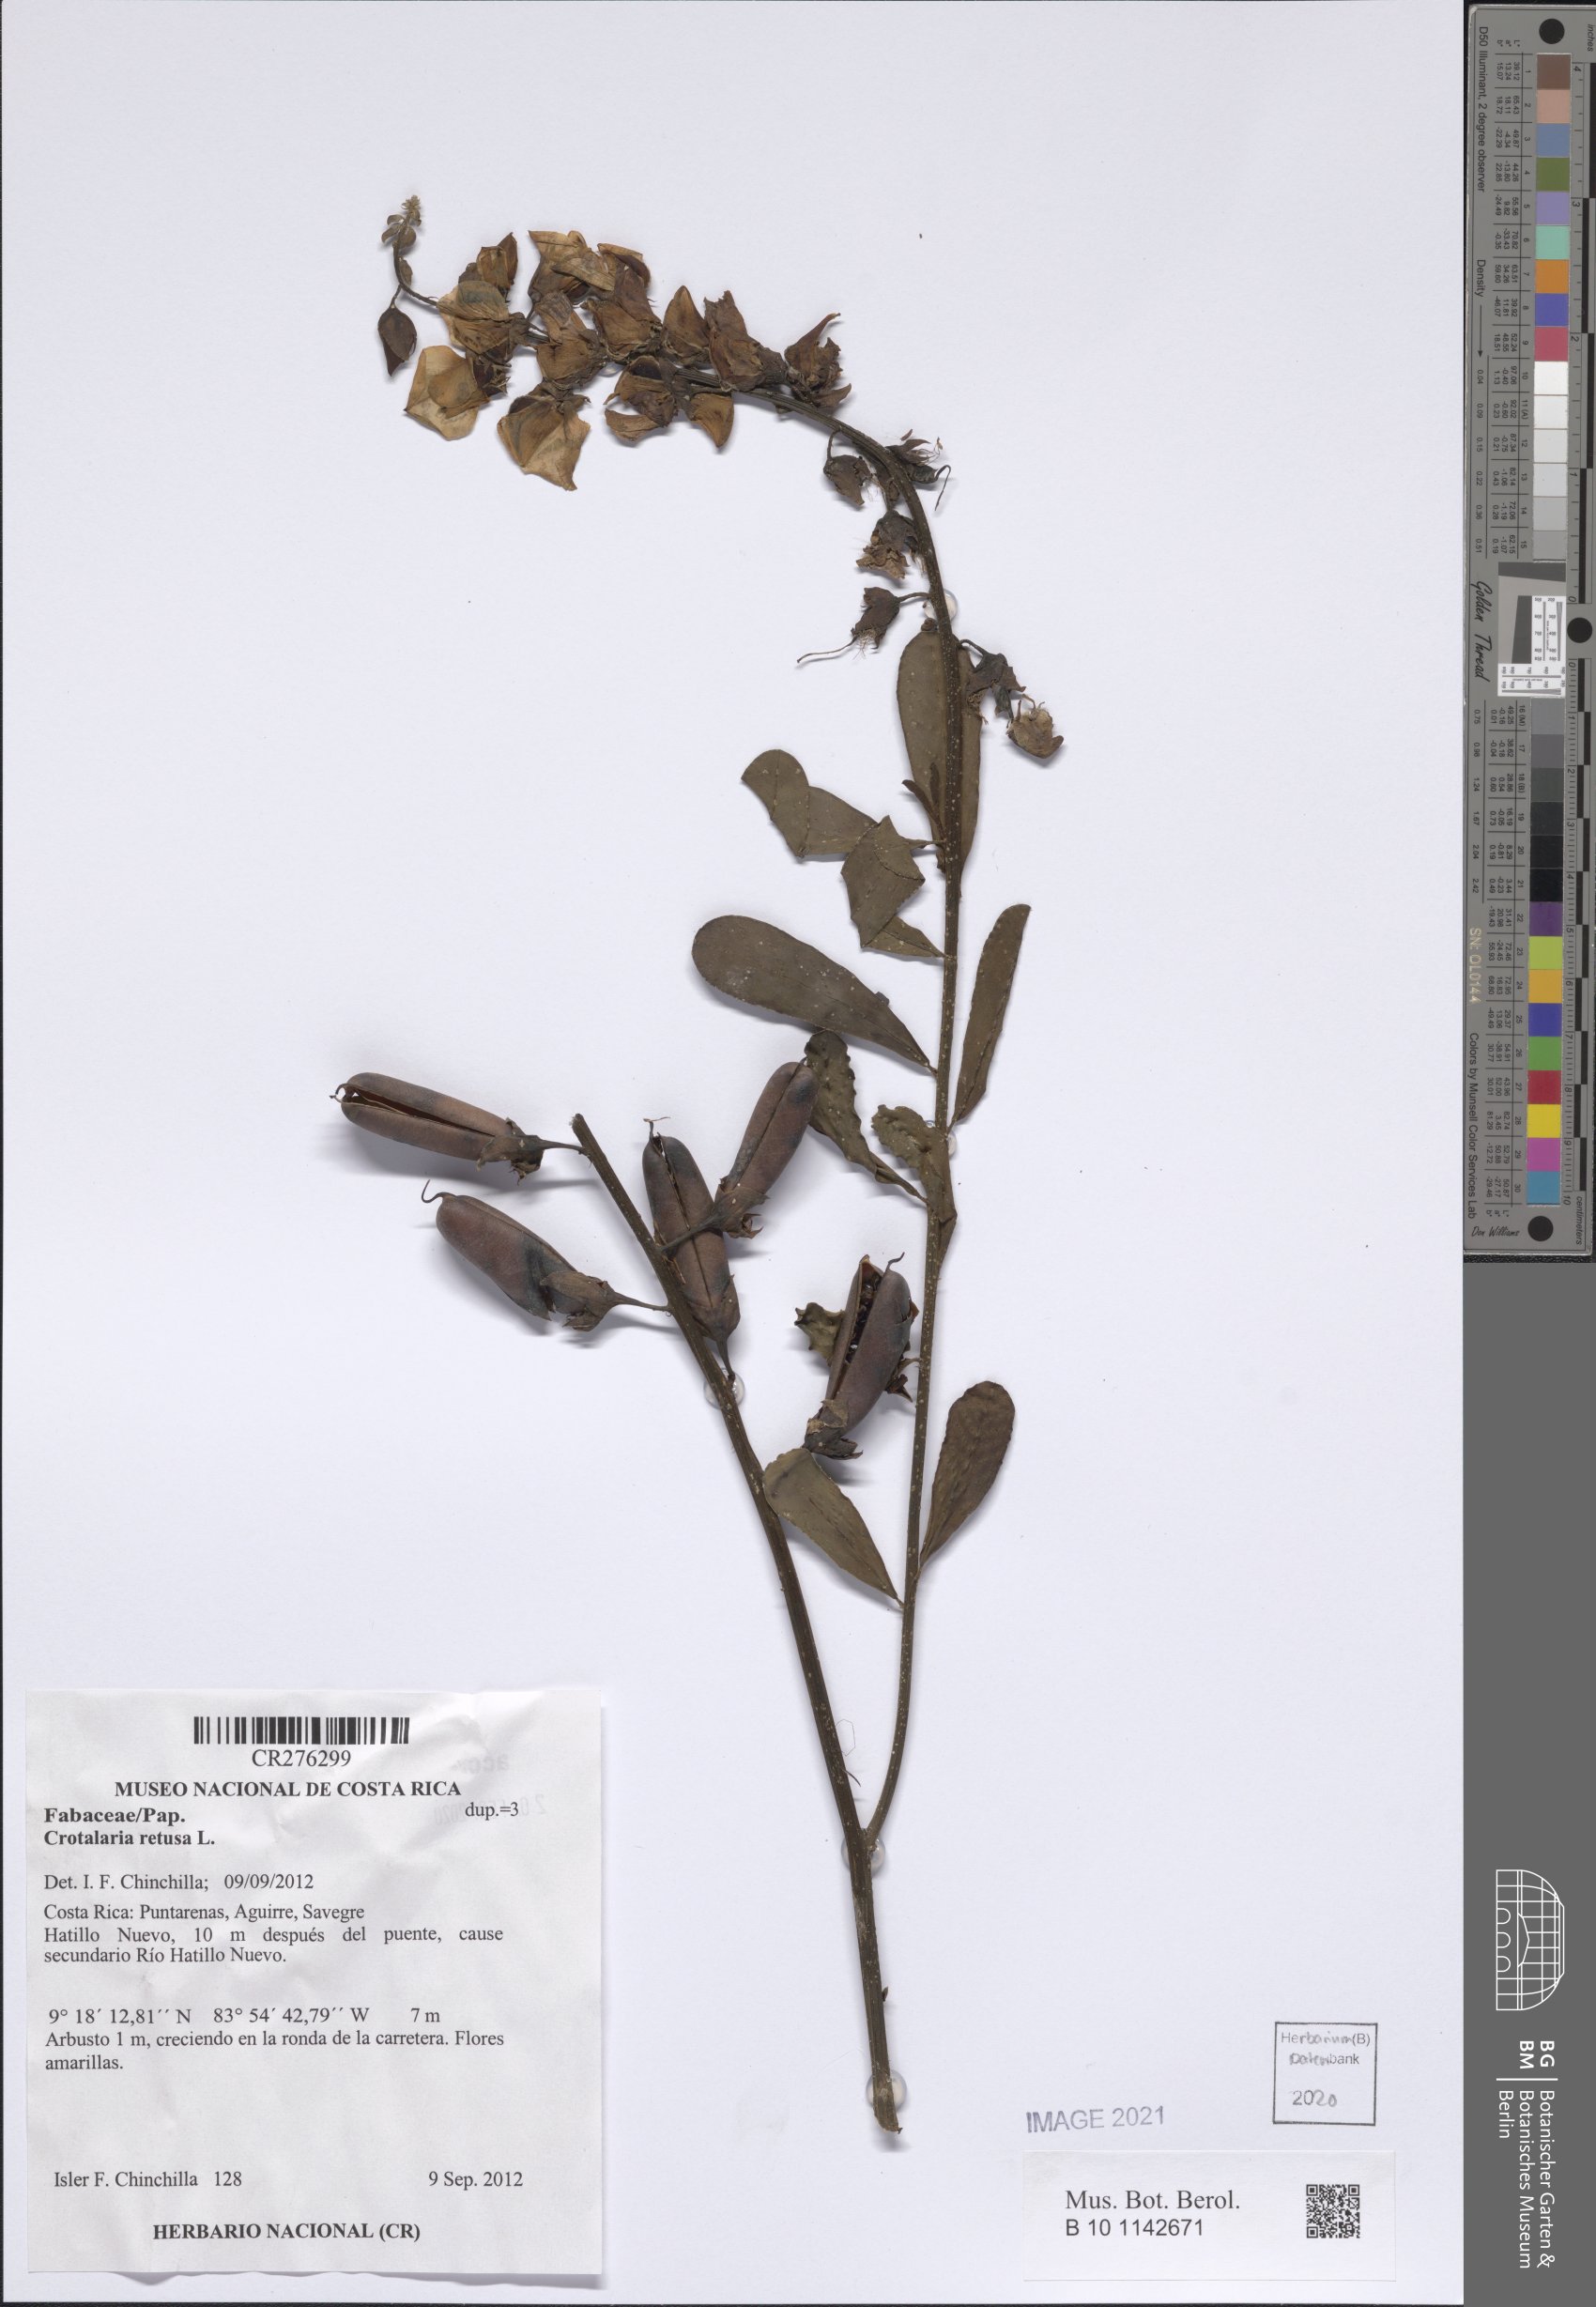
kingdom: Plantae
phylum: Tracheophyta
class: Magnoliopsida
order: Fabales
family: Fabaceae
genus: Crotalaria
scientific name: Crotalaria retusa
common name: Rattleweed
